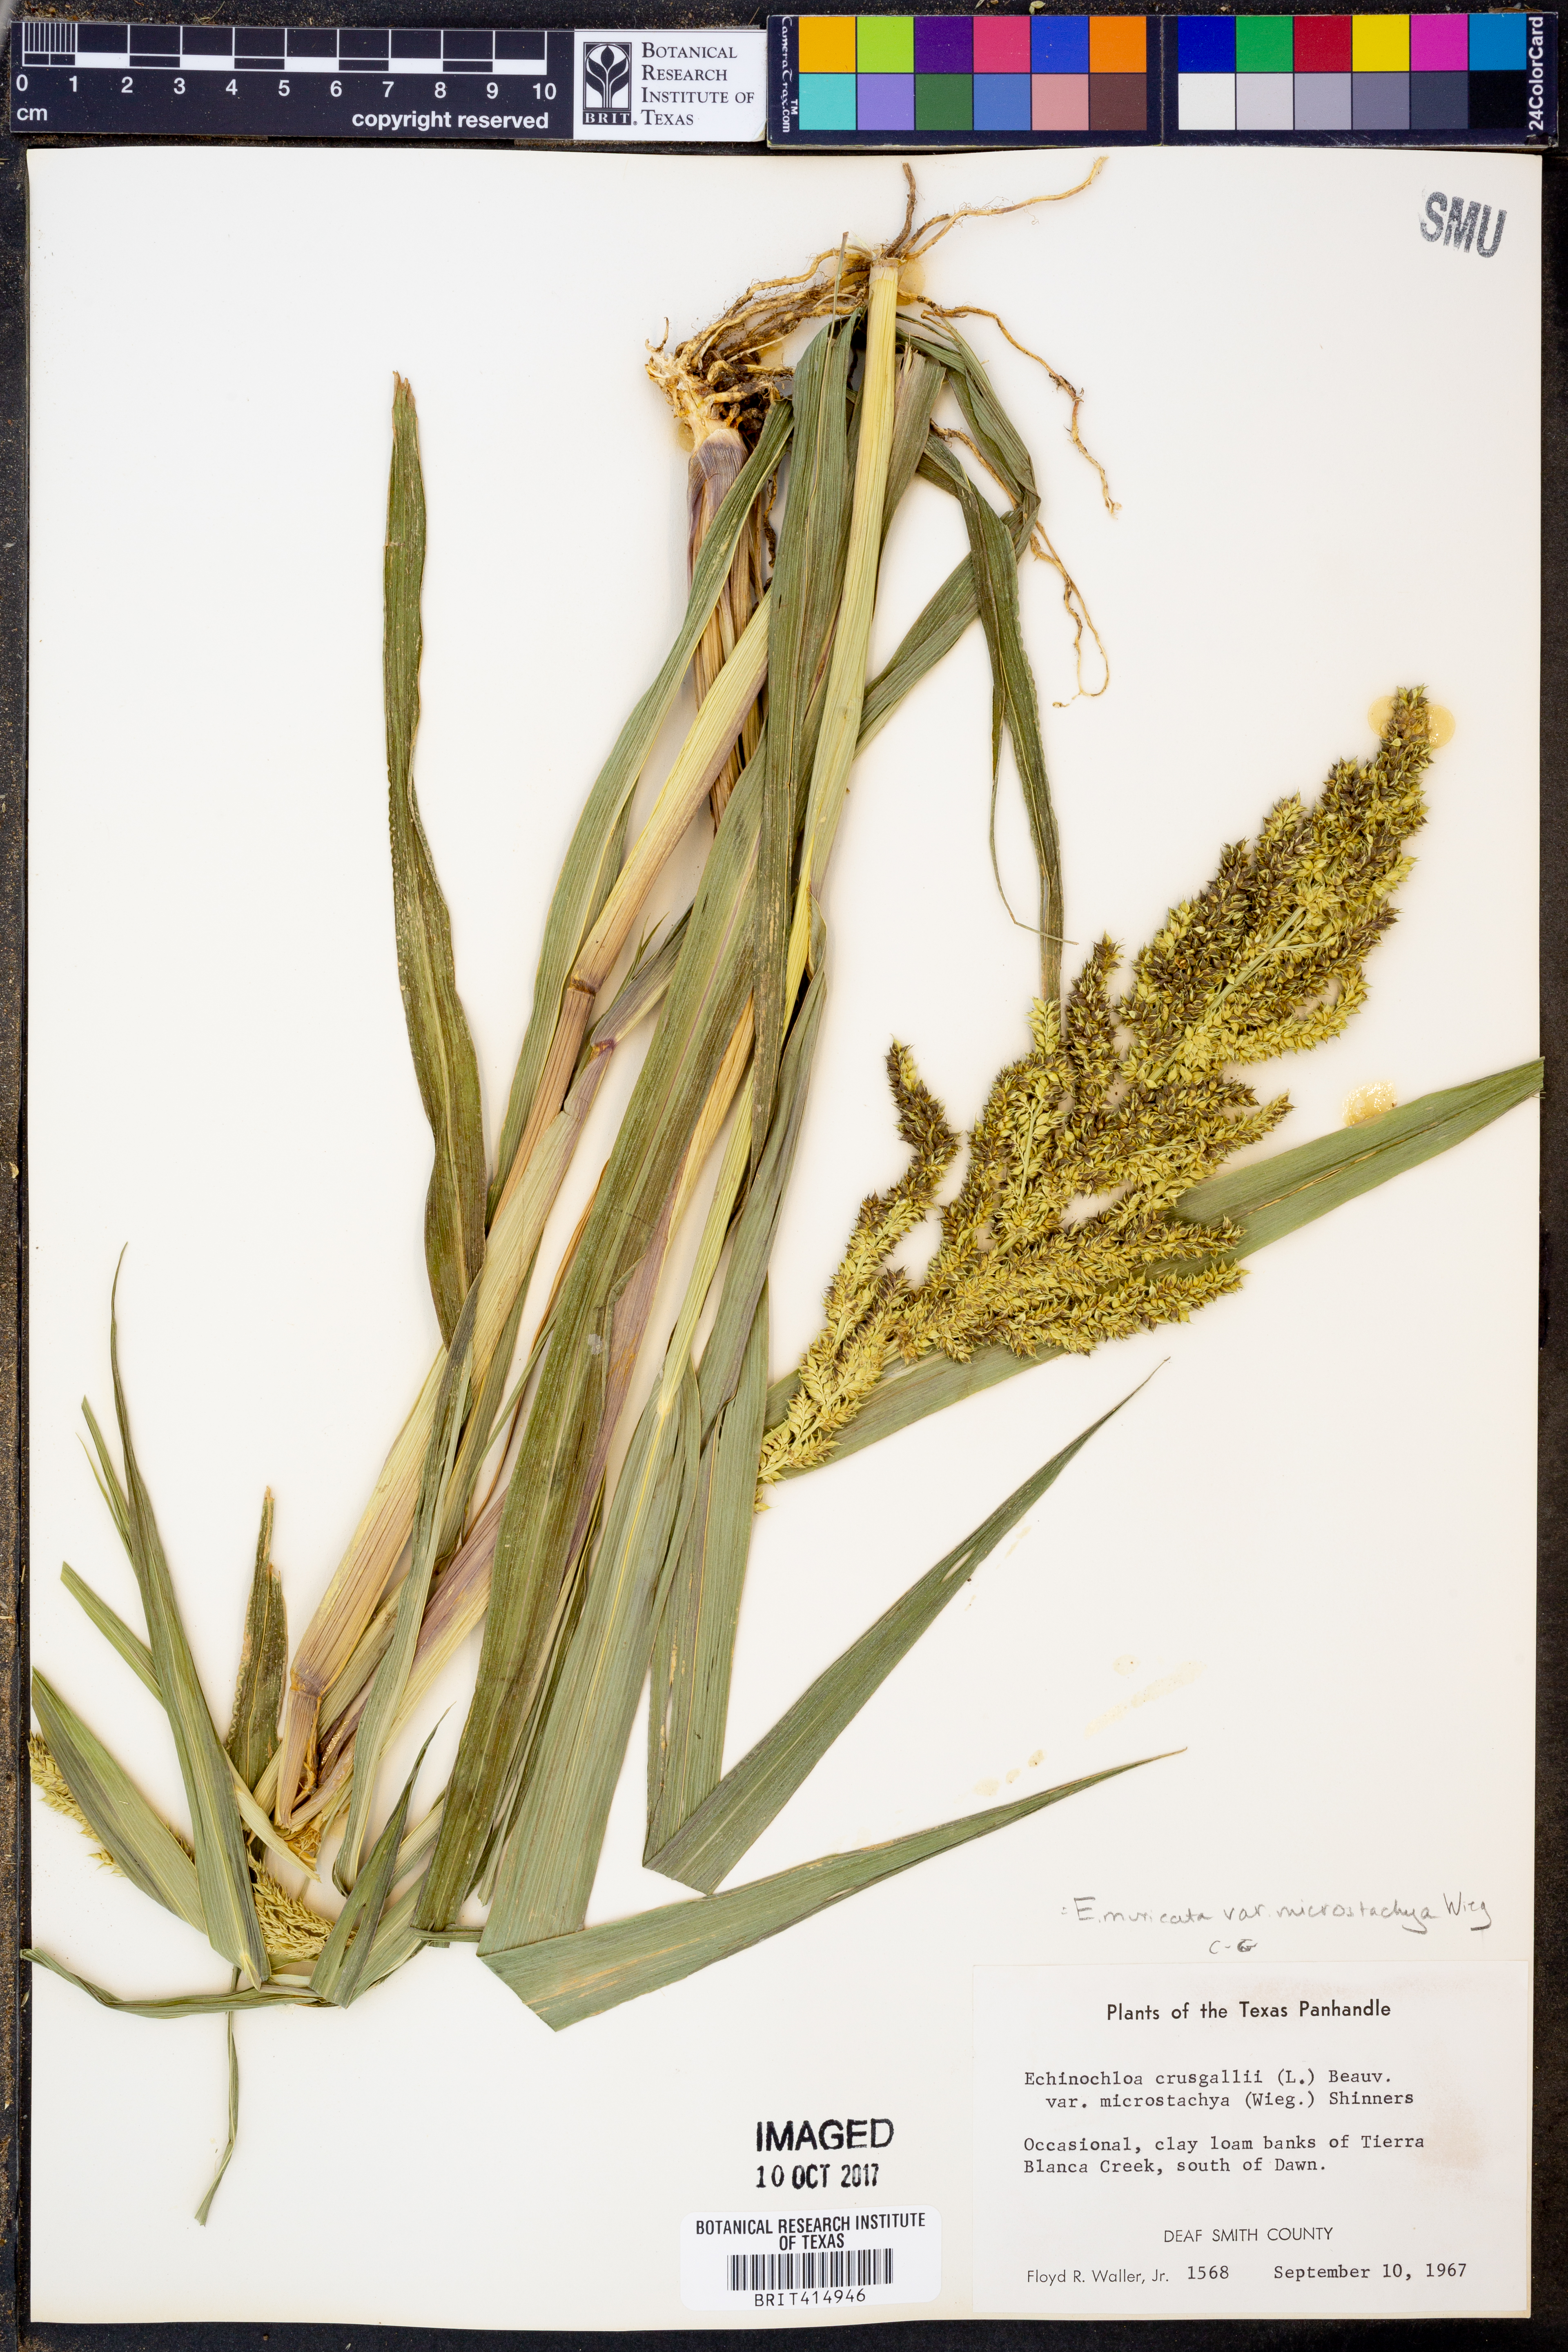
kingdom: Plantae
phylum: Tracheophyta
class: Liliopsida
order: Poales
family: Poaceae
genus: Echinochloa
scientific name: Echinochloa muricata
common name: American barnyard grass
